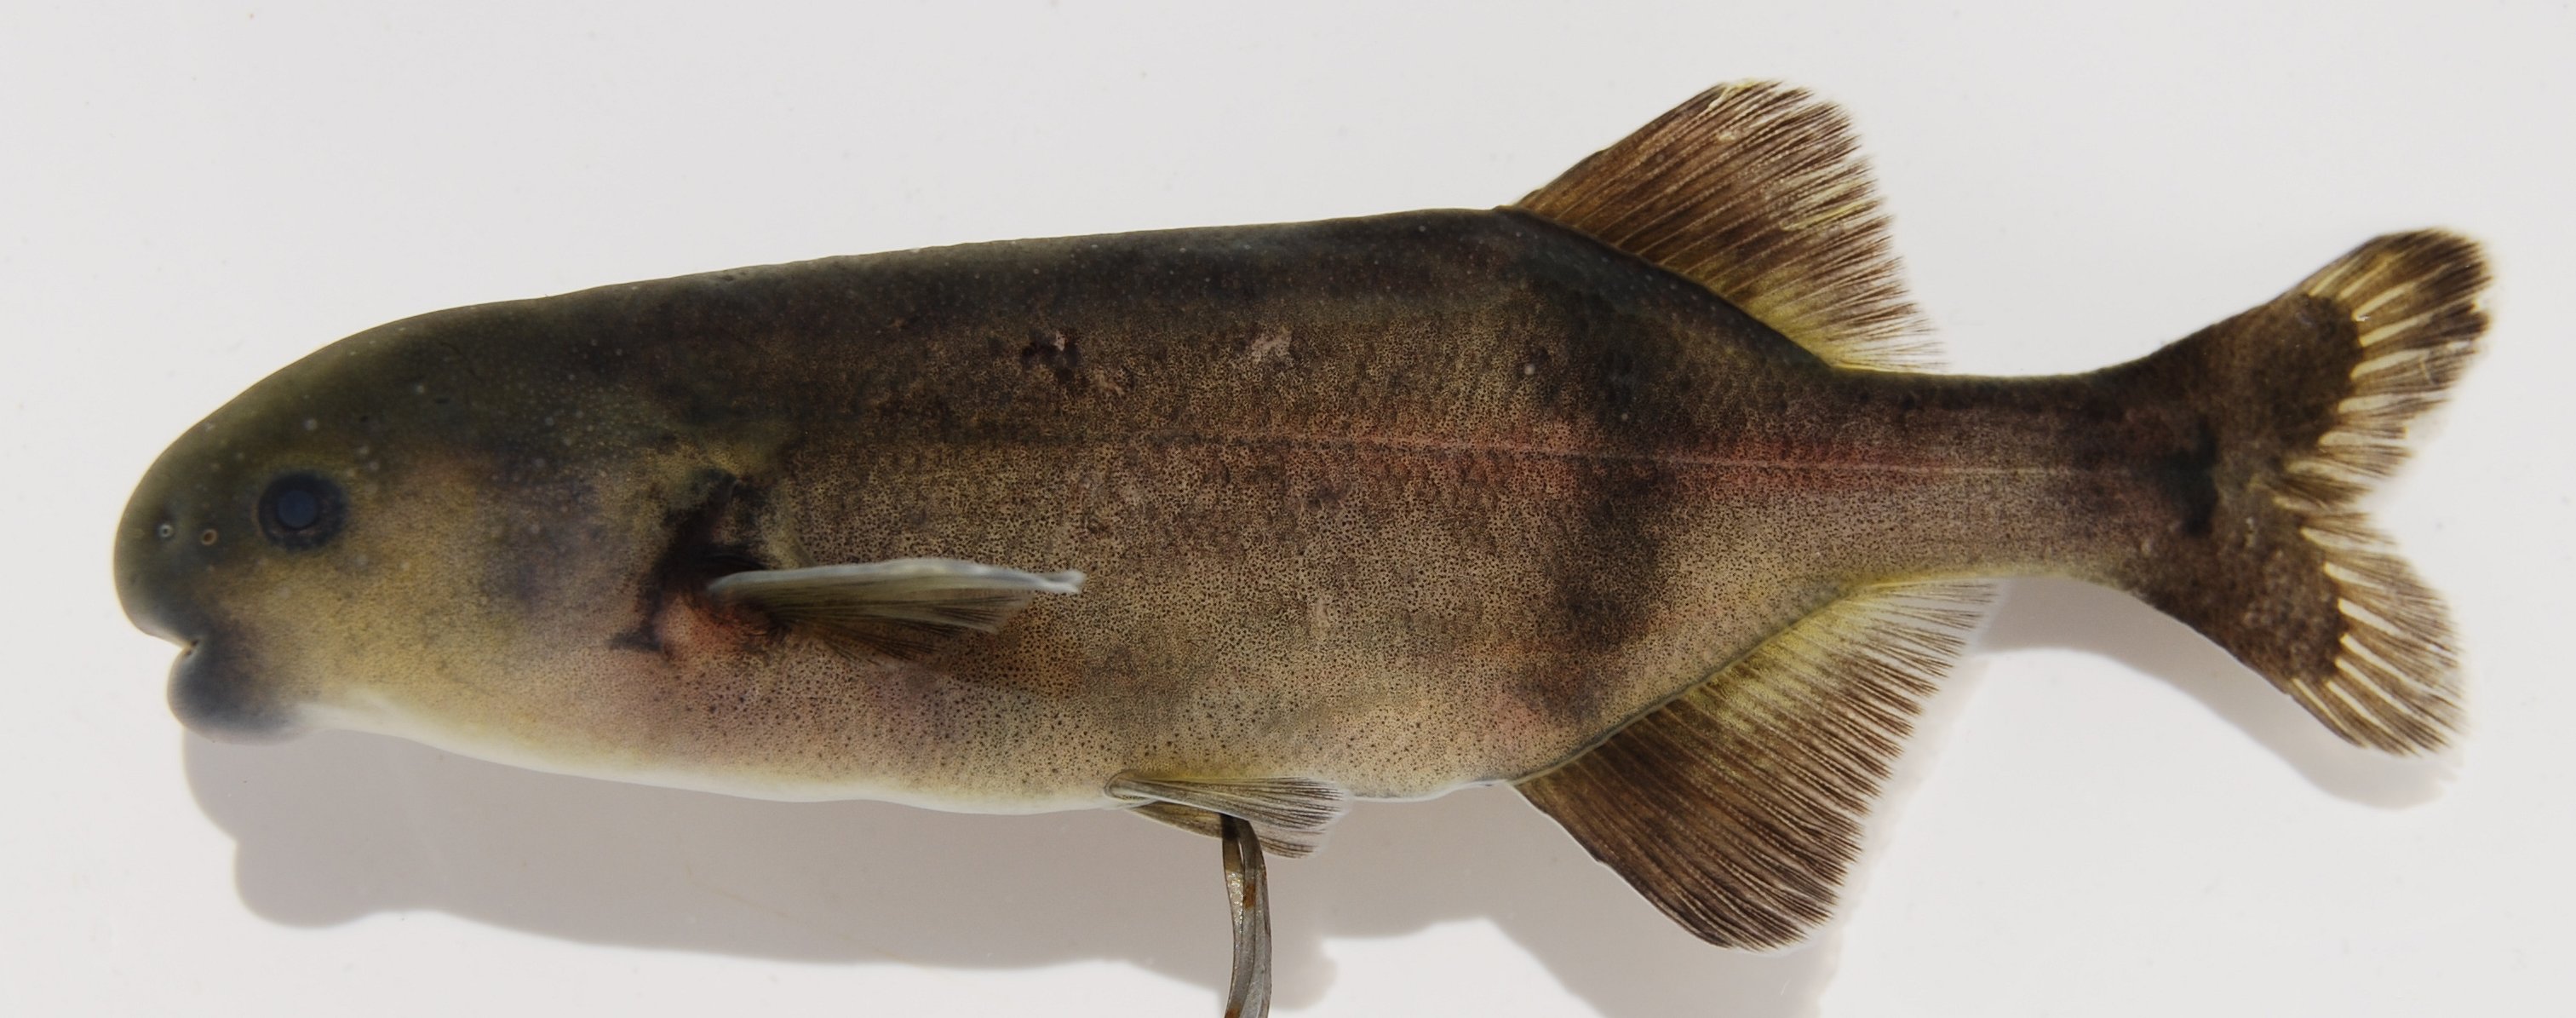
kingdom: Animalia
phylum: Chordata
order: Osteoglossiformes
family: Mormyridae
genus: Hippopotamyrus
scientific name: Hippopotamyrus szaboi
